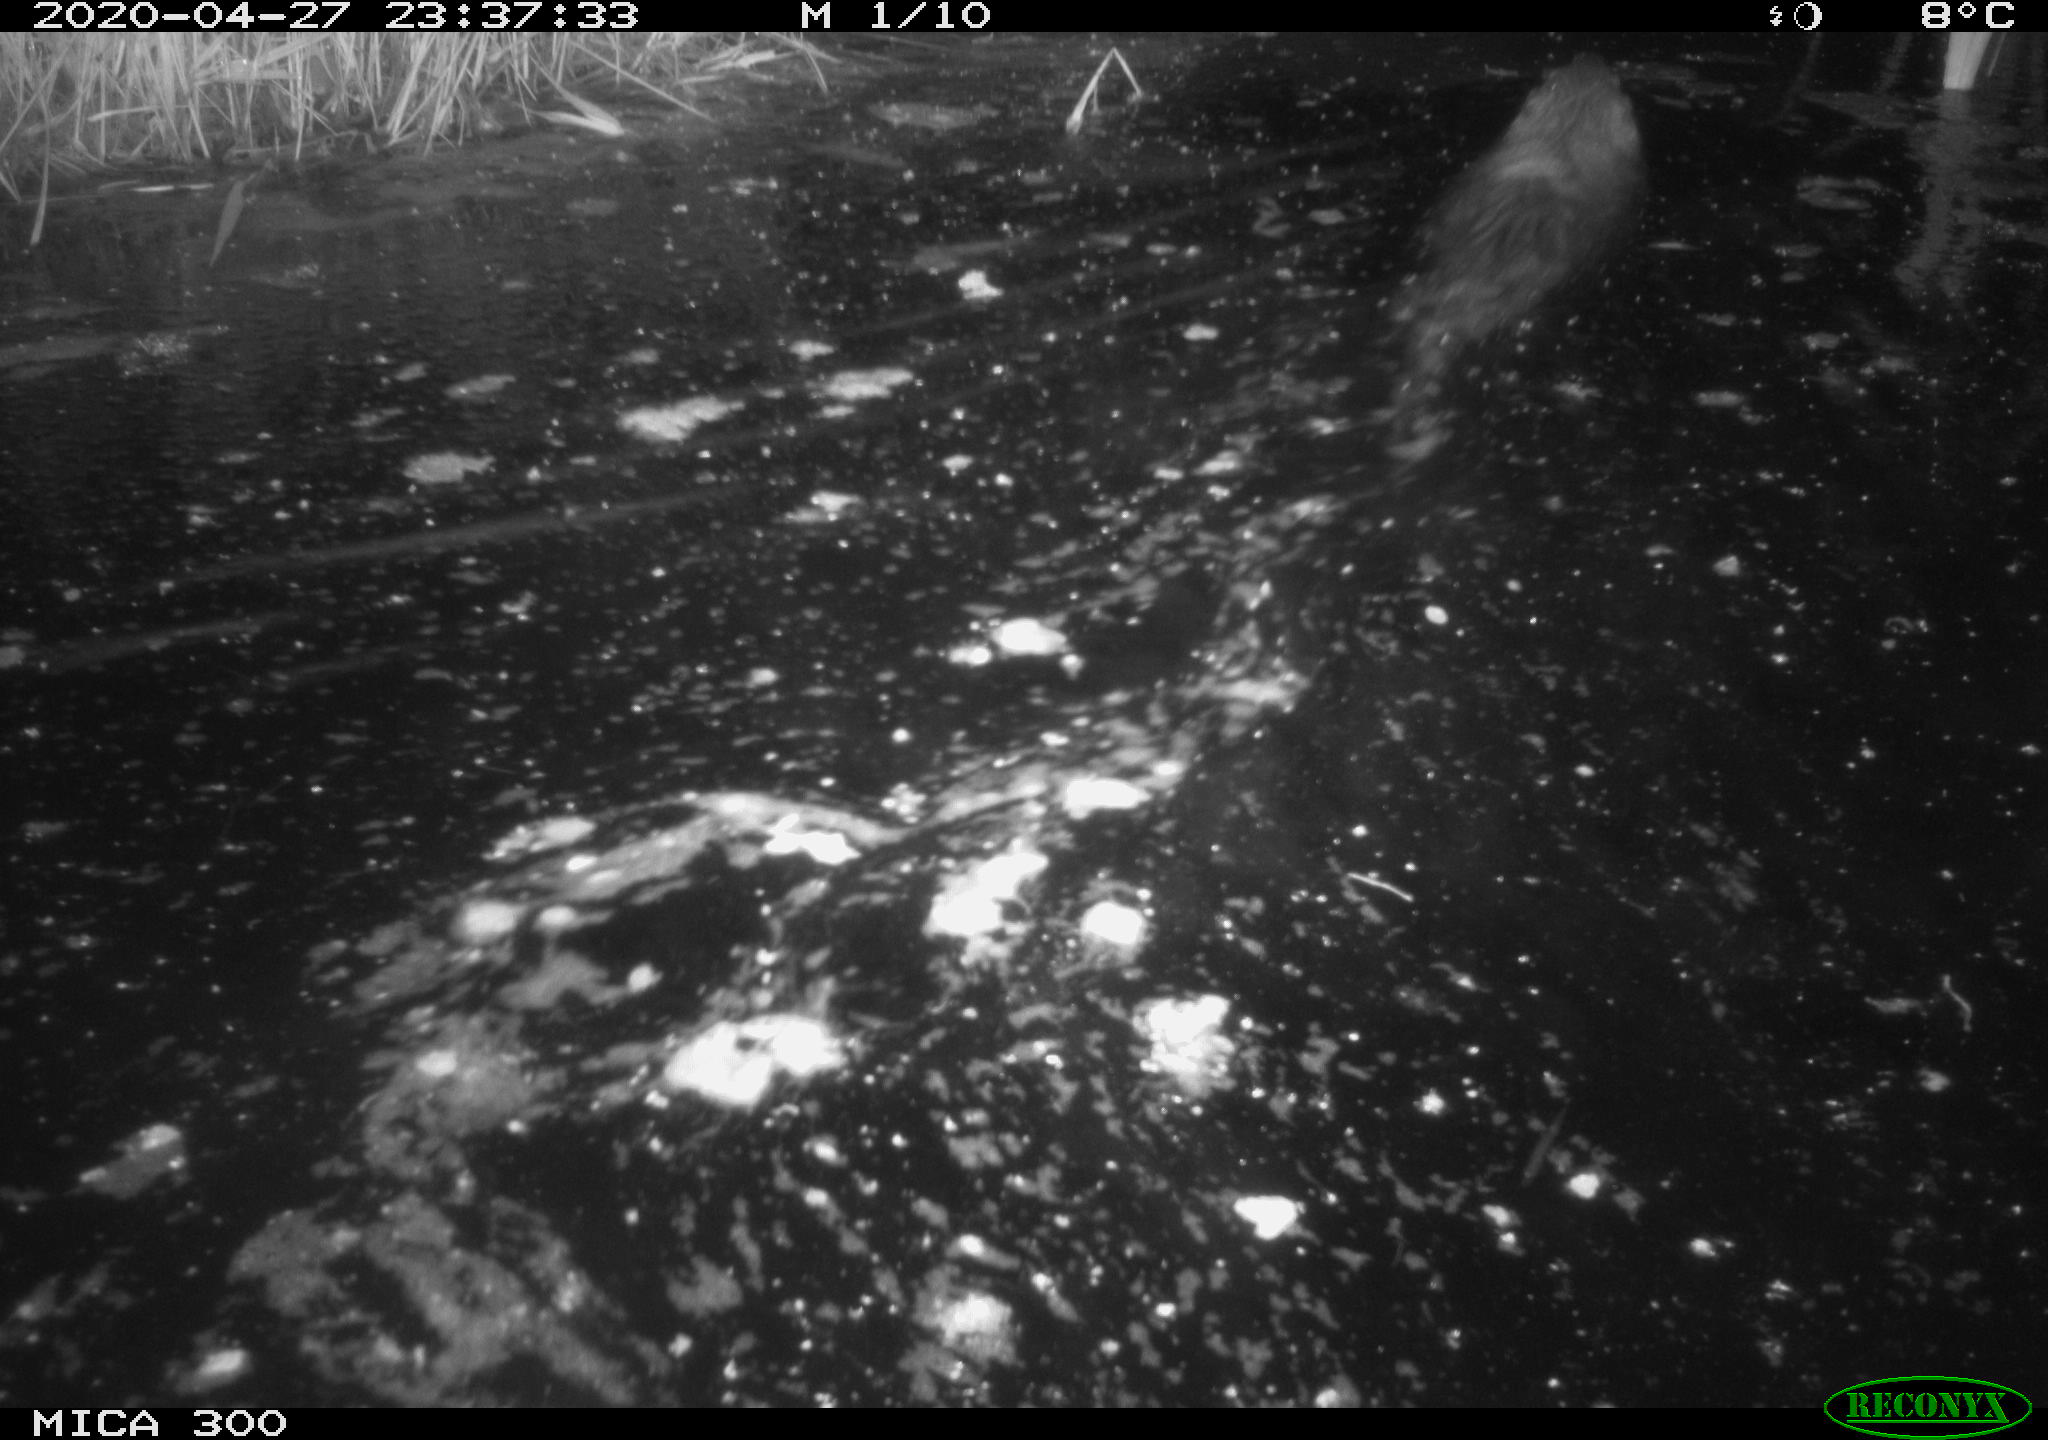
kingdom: Animalia
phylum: Chordata
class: Mammalia
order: Rodentia
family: Castoridae
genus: Castor
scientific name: Castor fiber
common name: Eurasian beaver
